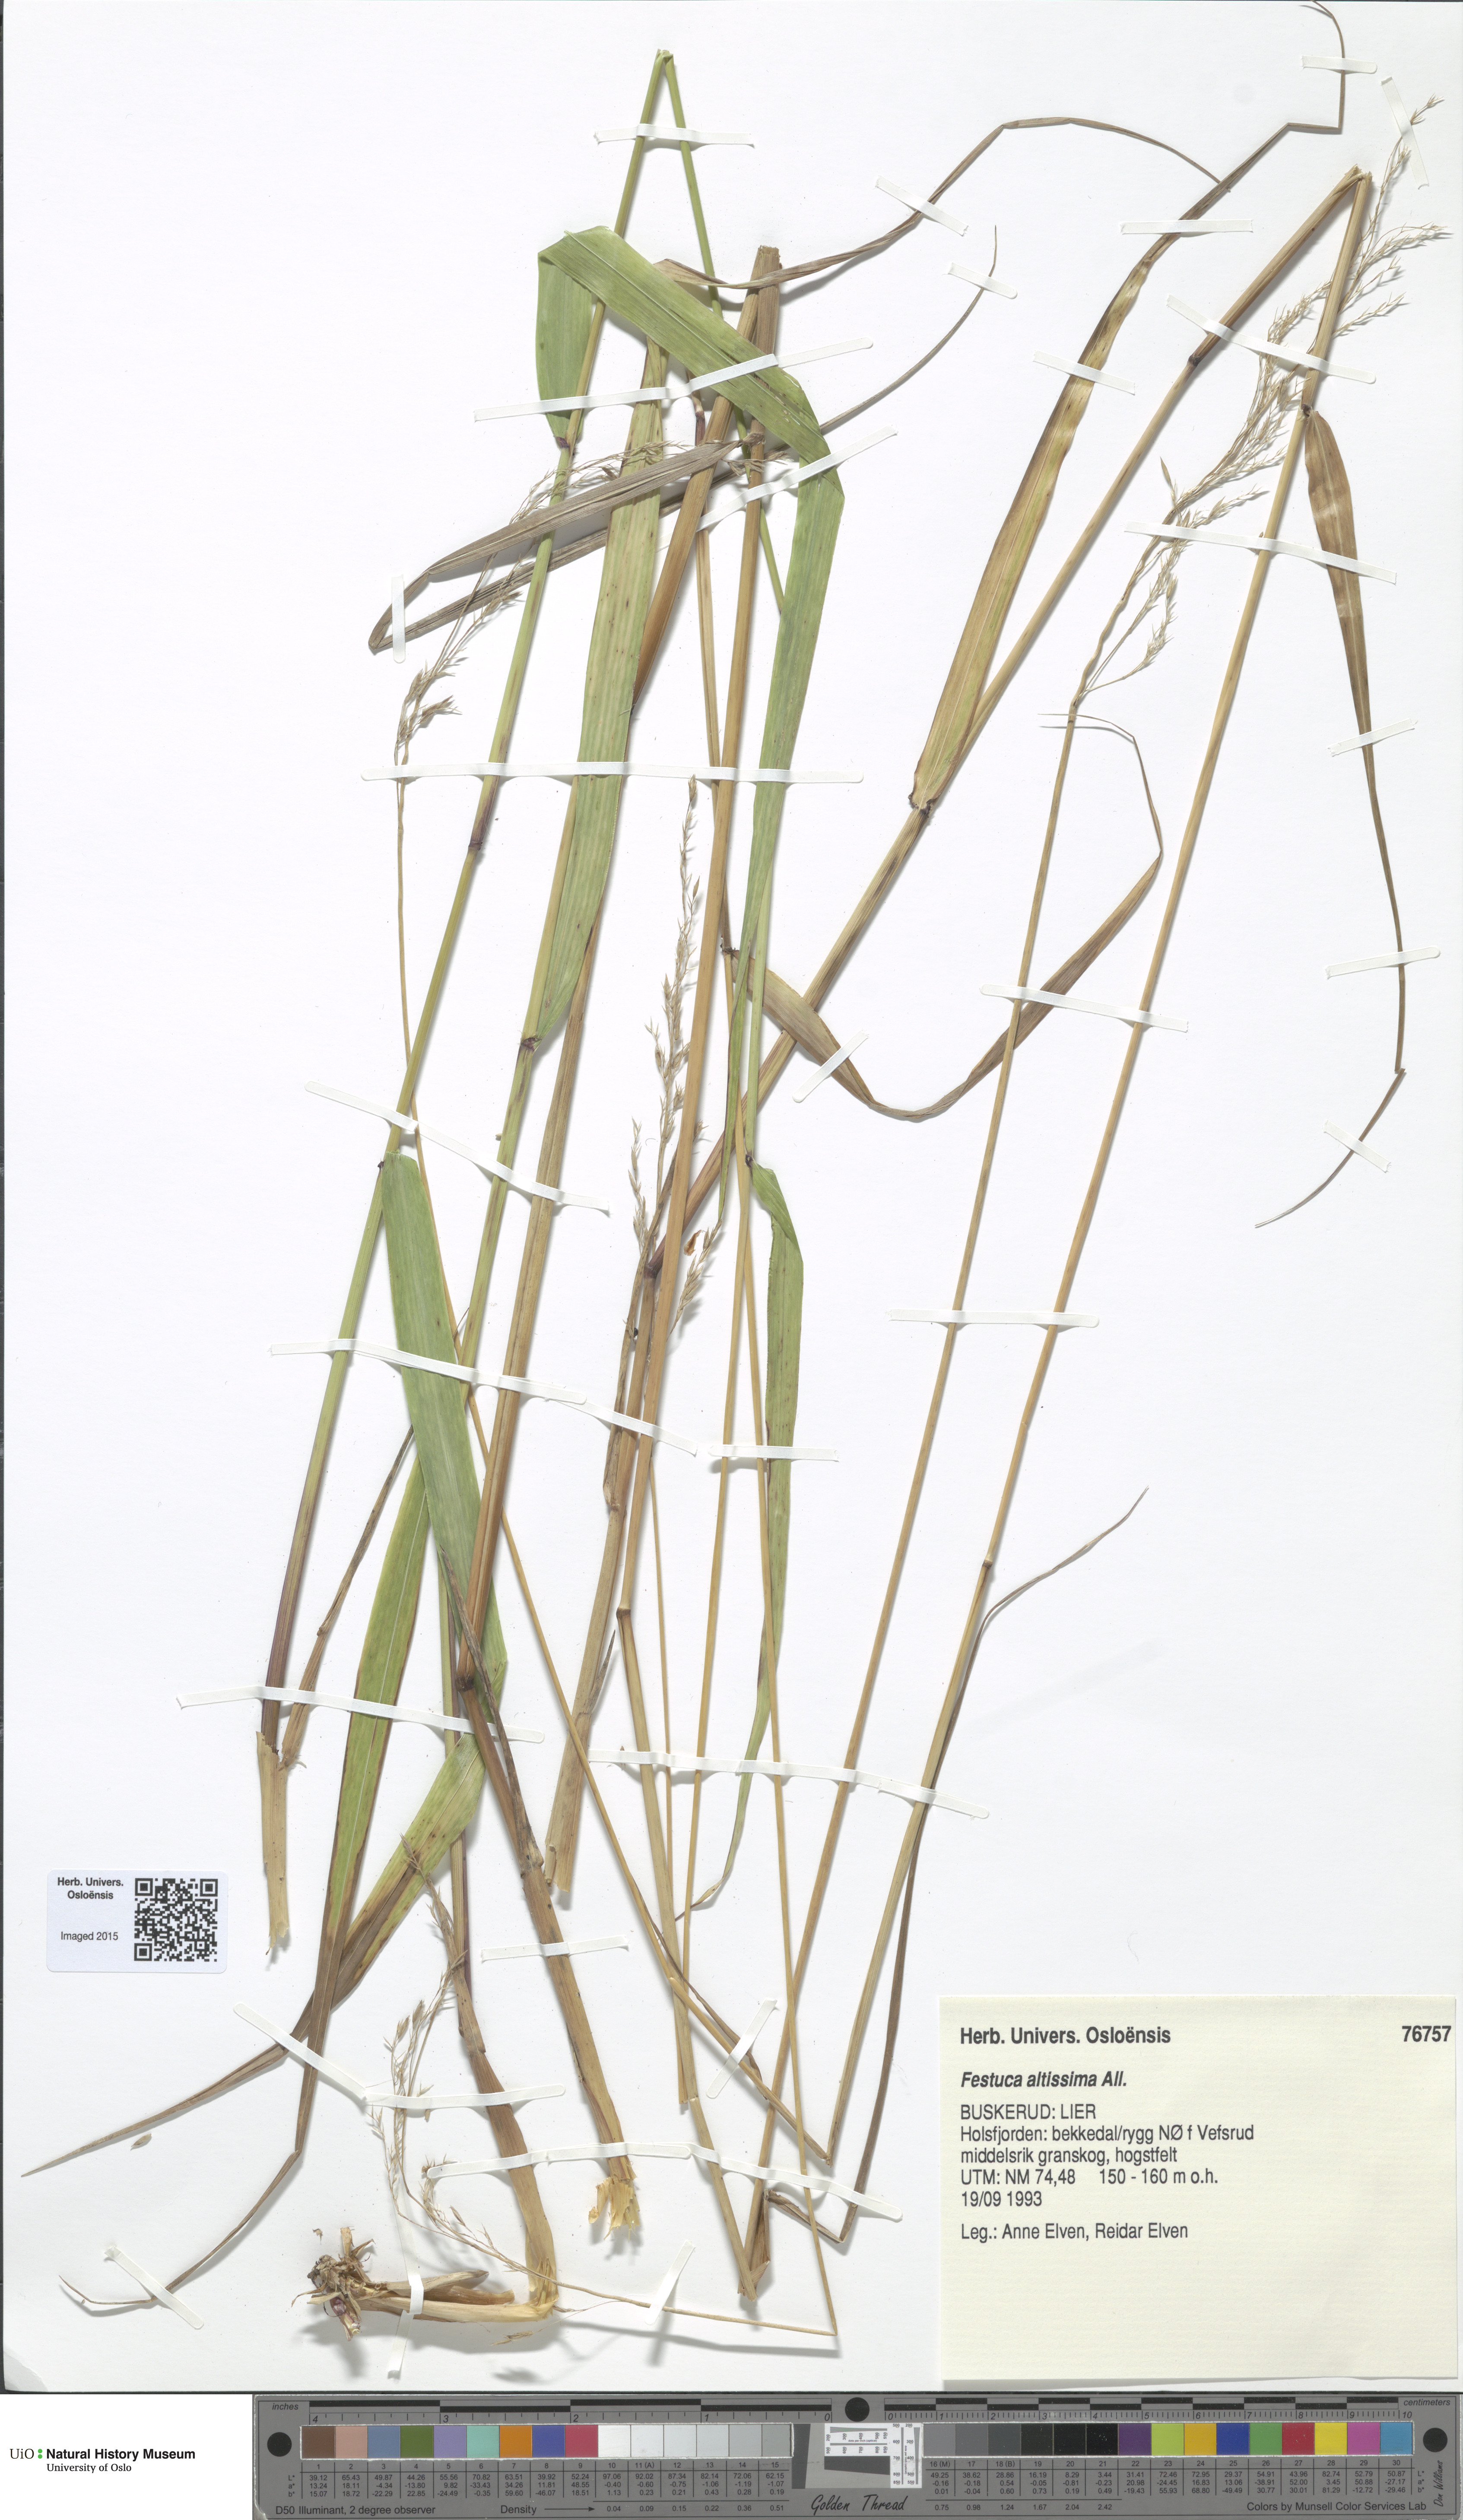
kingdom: Plantae
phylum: Tracheophyta
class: Liliopsida
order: Poales
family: Poaceae
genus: Festuca
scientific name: Festuca altissima
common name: Wood fescue
